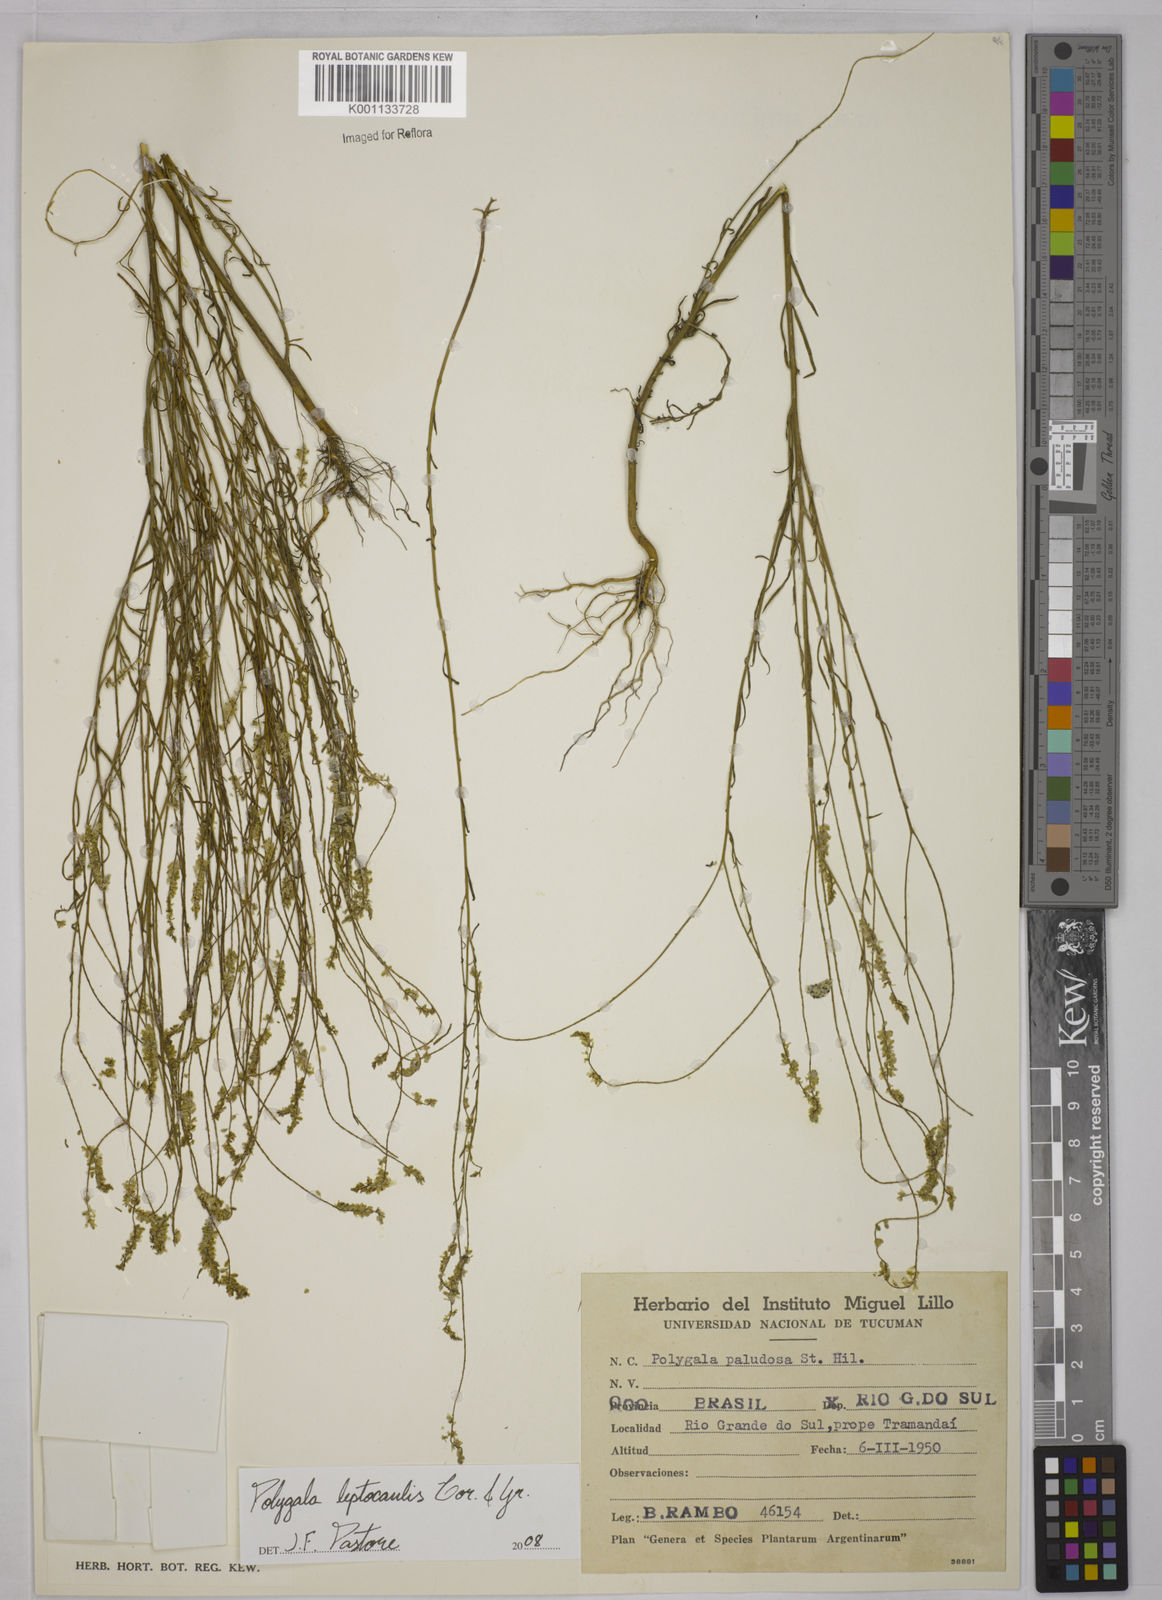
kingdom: Plantae
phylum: Tracheophyta
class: Magnoliopsida
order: Fabales
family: Polygalaceae
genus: Polygala
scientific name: Polygala tenella
